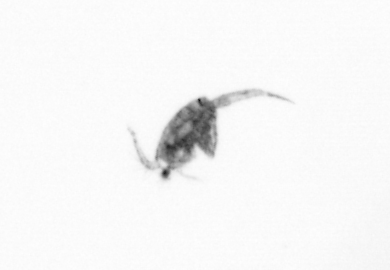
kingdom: Animalia
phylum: Arthropoda
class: Copepoda
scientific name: Copepoda
